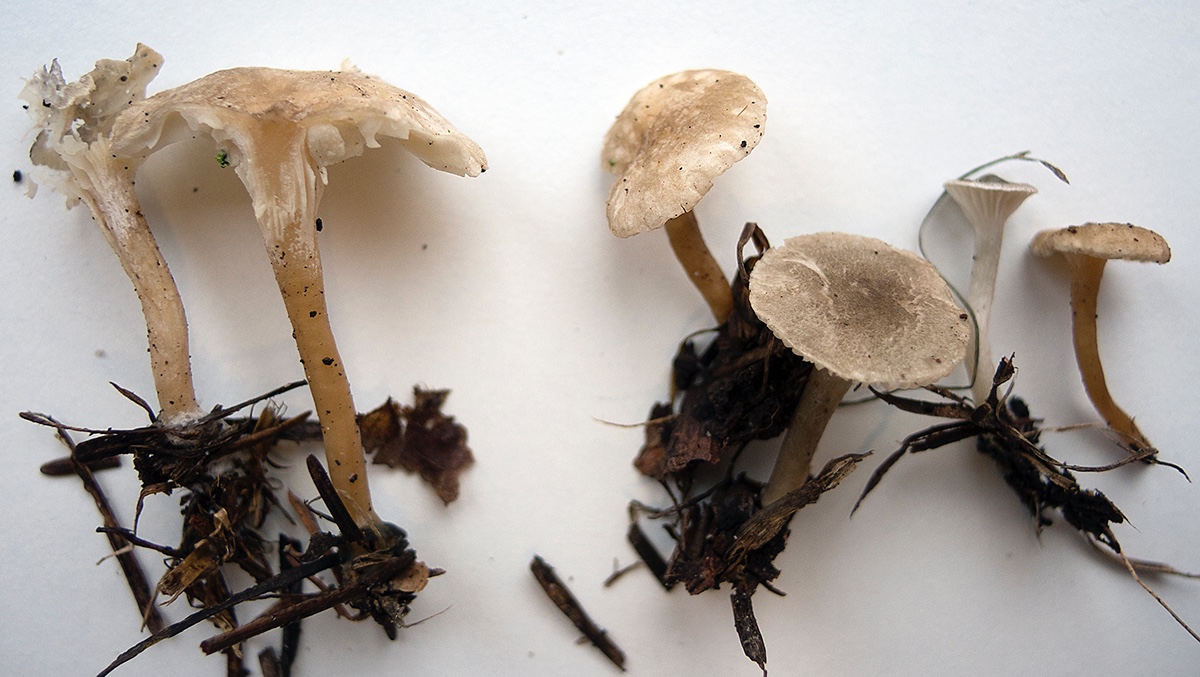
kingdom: Fungi
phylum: Basidiomycota
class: Agaricomycetes
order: Agaricales
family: Hygrophoraceae
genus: Spodocybe
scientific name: Spodocybe trulliformis
